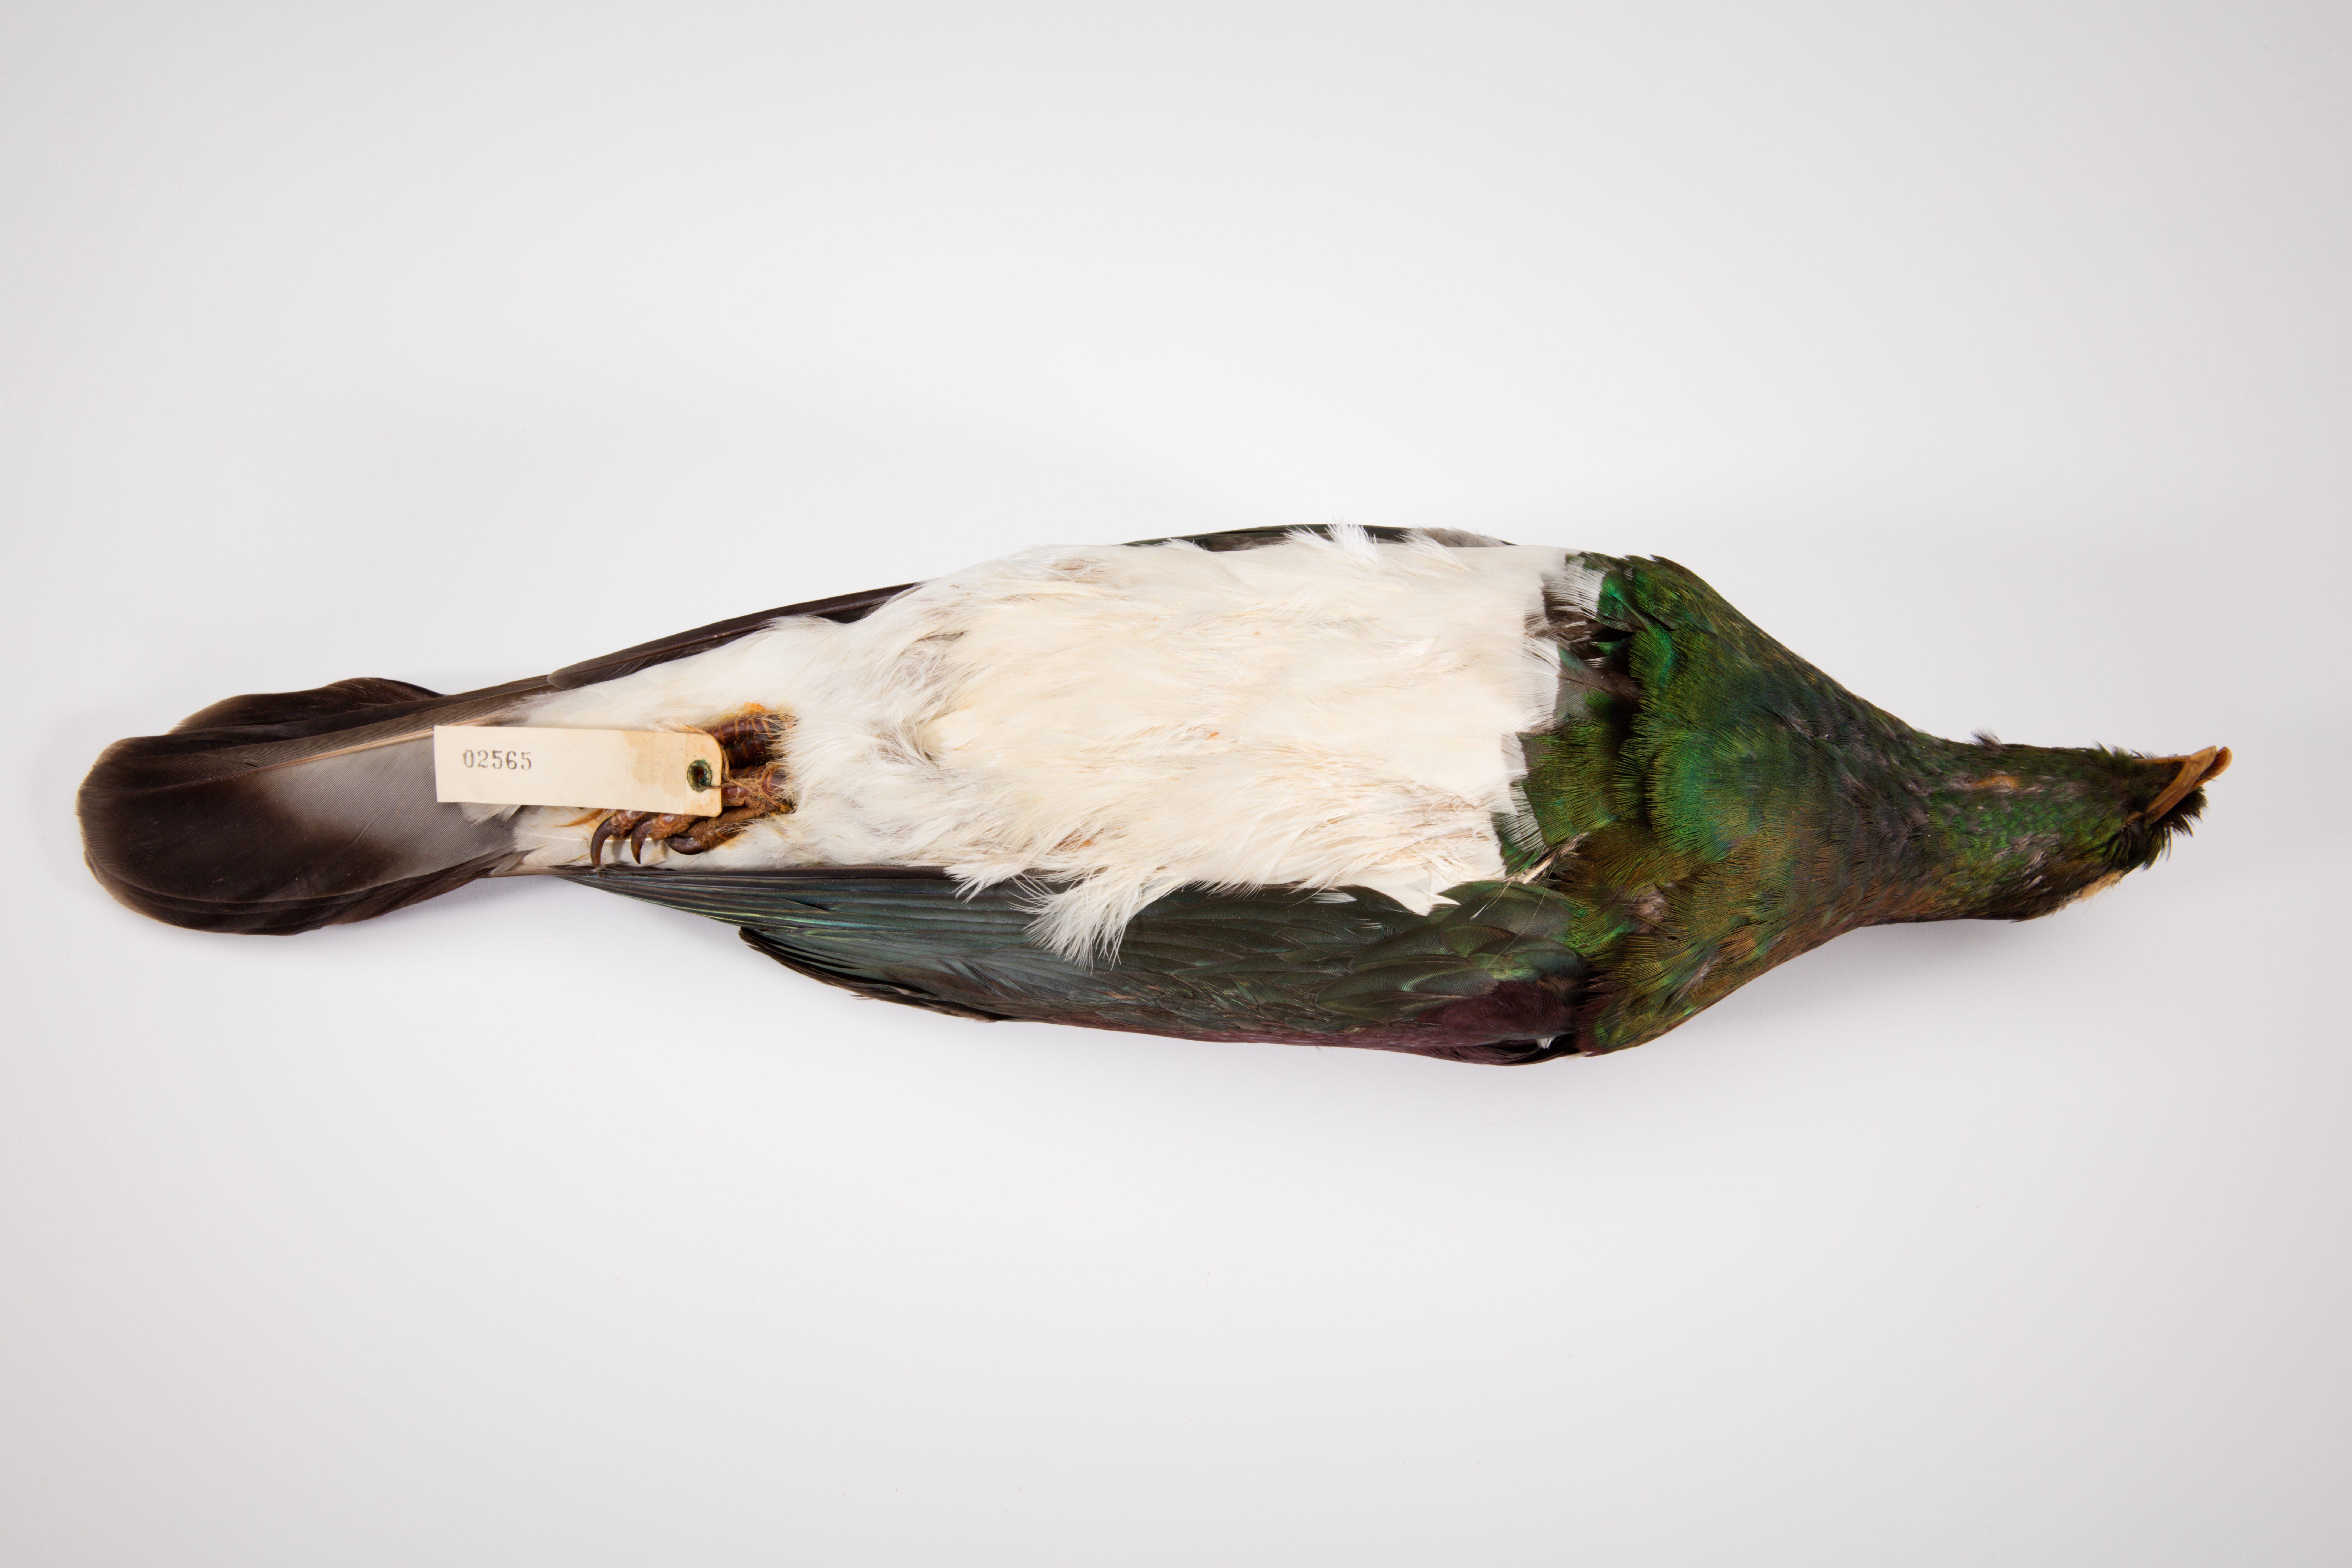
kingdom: Animalia
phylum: Chordata
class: Aves
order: Columbiformes
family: Columbidae
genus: Hemiphaga
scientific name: Hemiphaga novaeseelandiae
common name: New zealand pigeon
